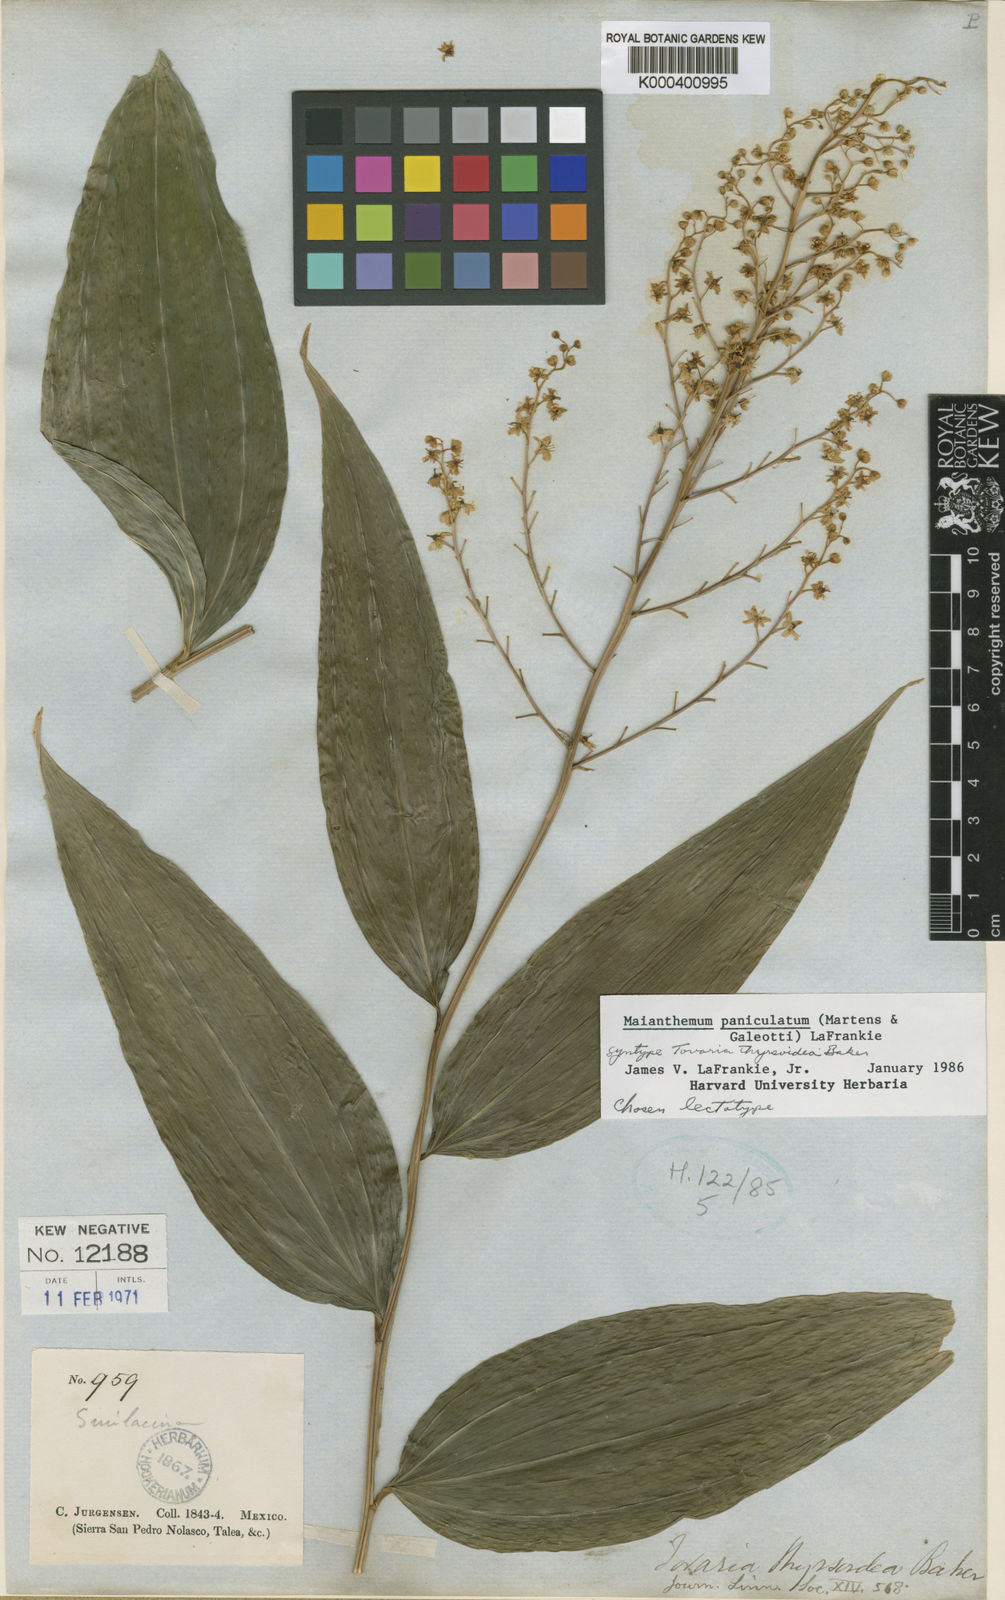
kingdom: Plantae
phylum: Tracheophyta
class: Liliopsida
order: Asparagales
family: Asparagaceae
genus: Maianthemum
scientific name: Maianthemum paniculatum
